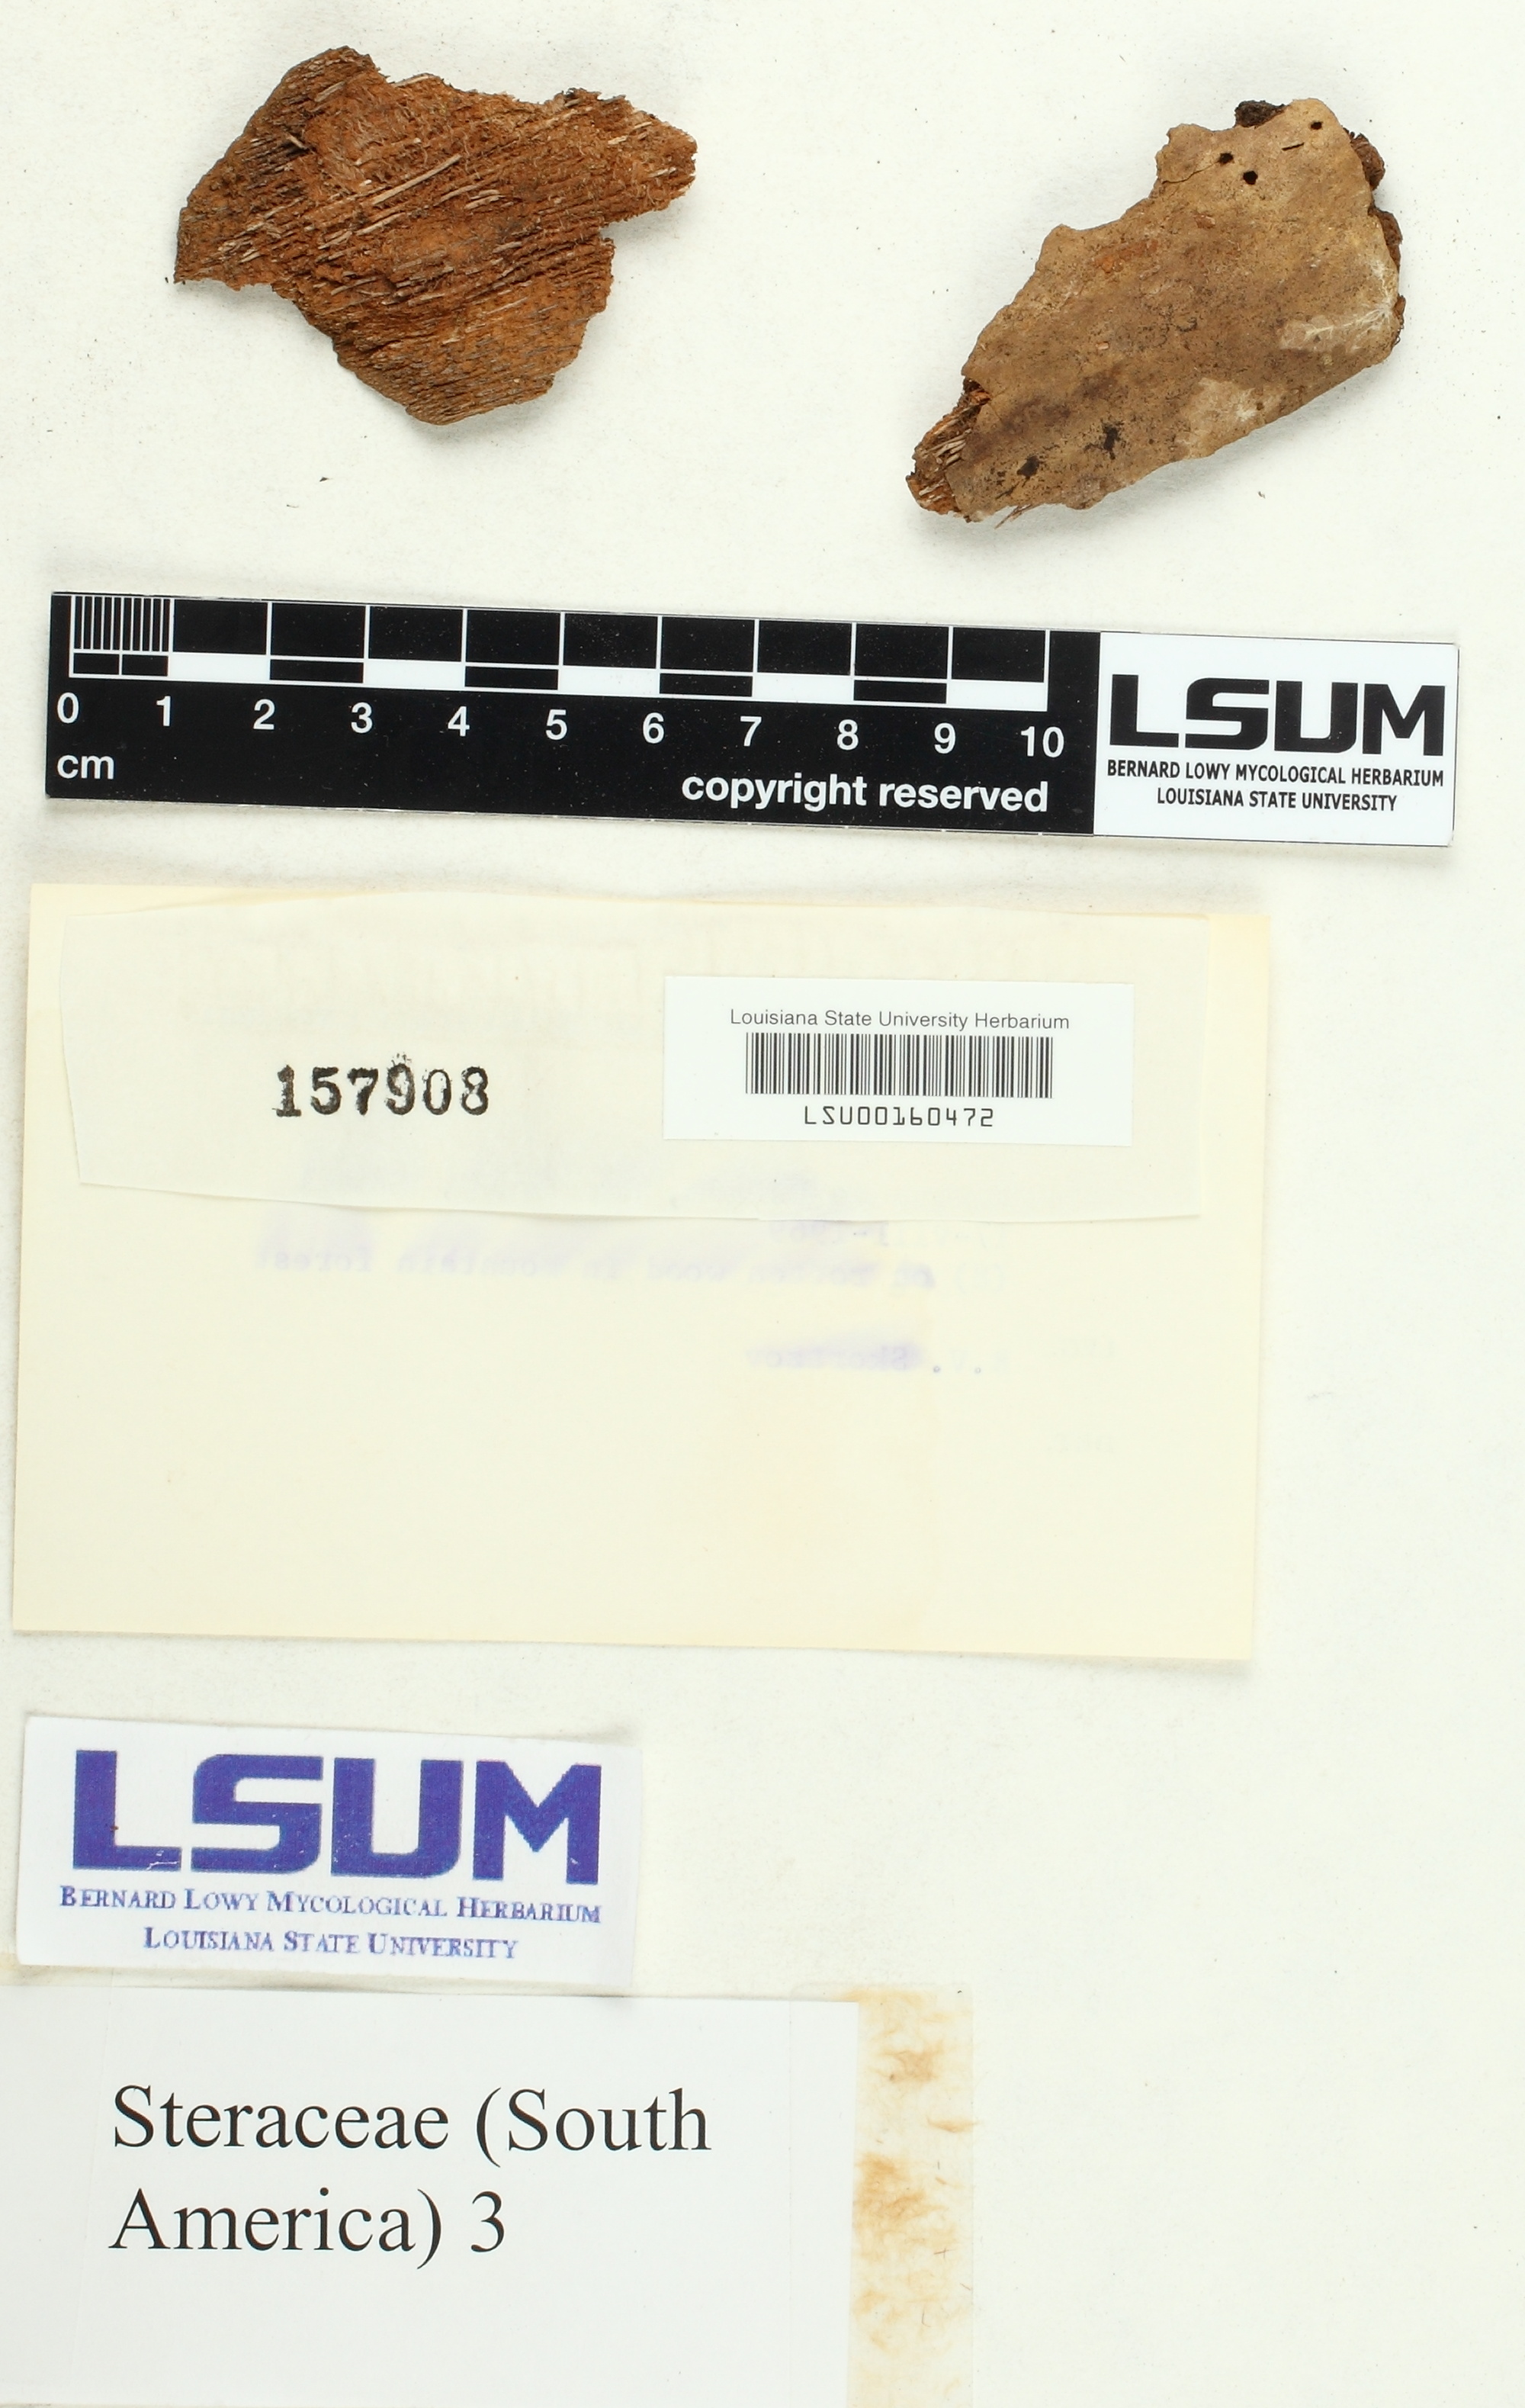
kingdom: Fungi
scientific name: Fungi
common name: Fungi
